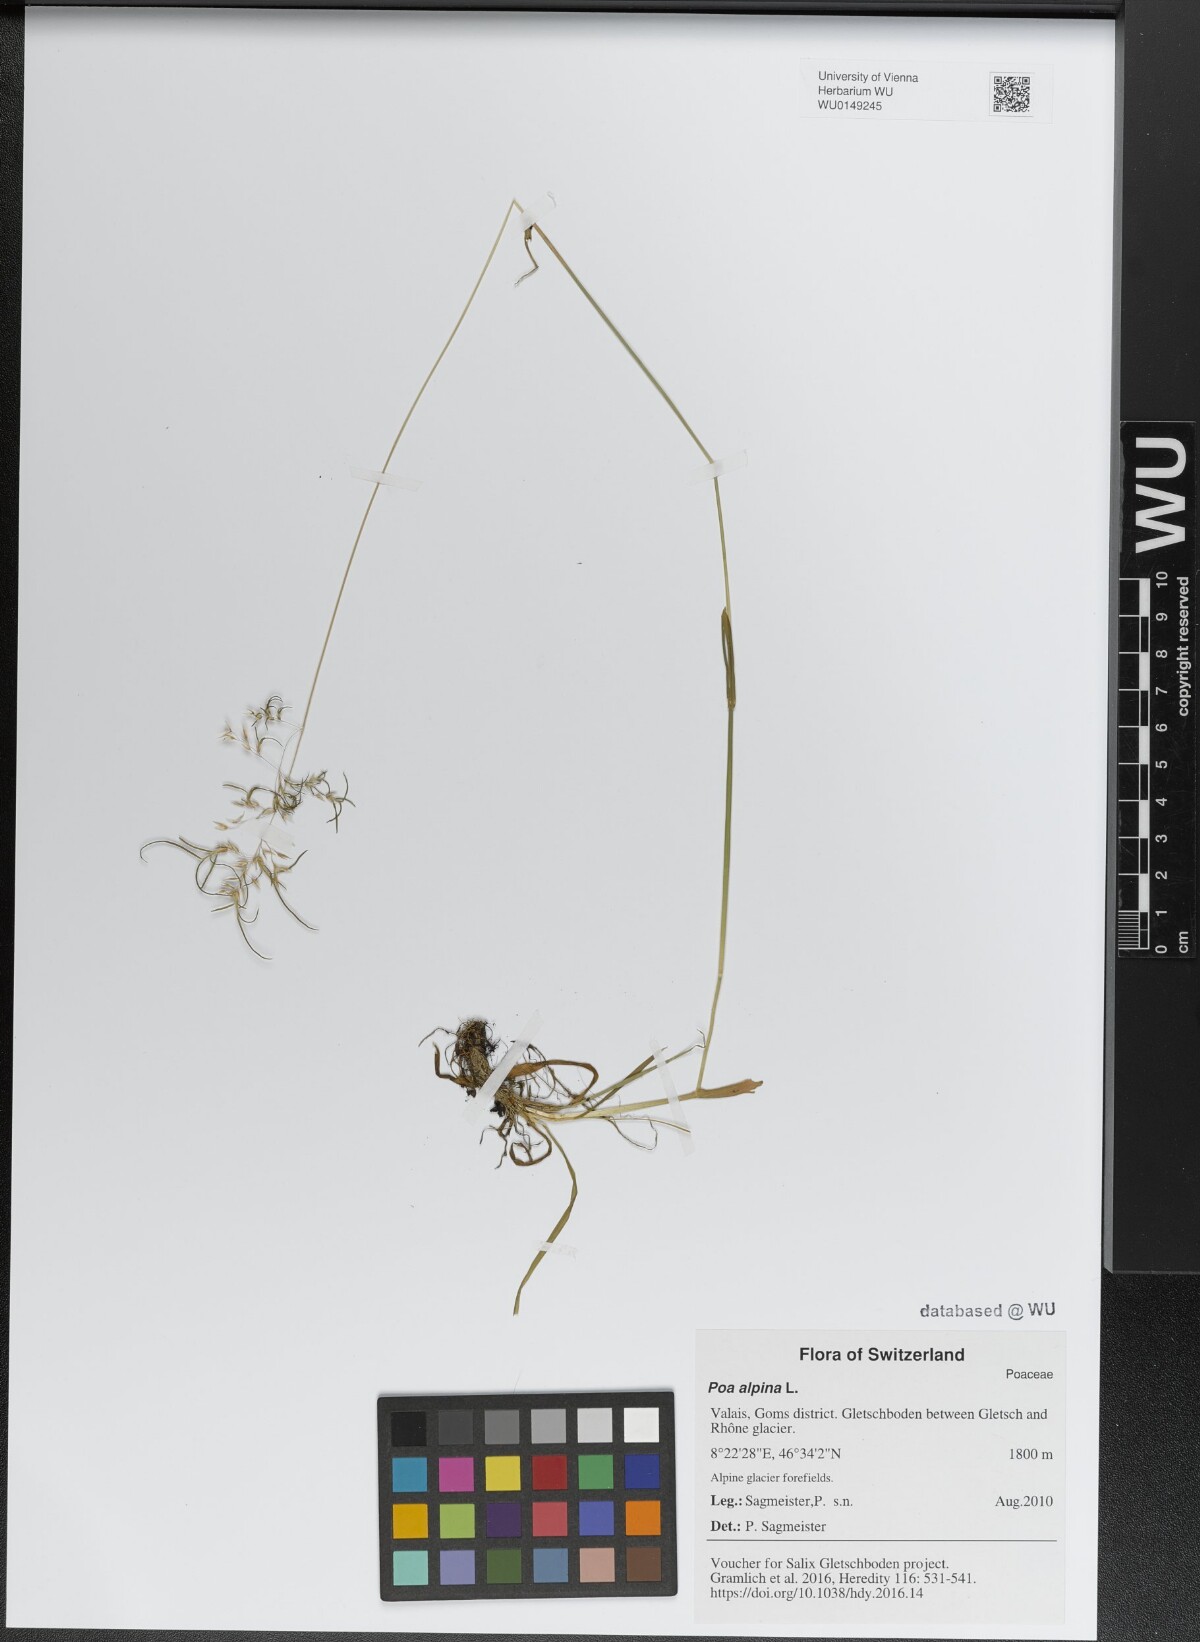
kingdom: Plantae
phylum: Tracheophyta
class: Liliopsida
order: Poales
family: Poaceae
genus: Poa
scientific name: Poa alpina
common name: Alpine bluegrass
